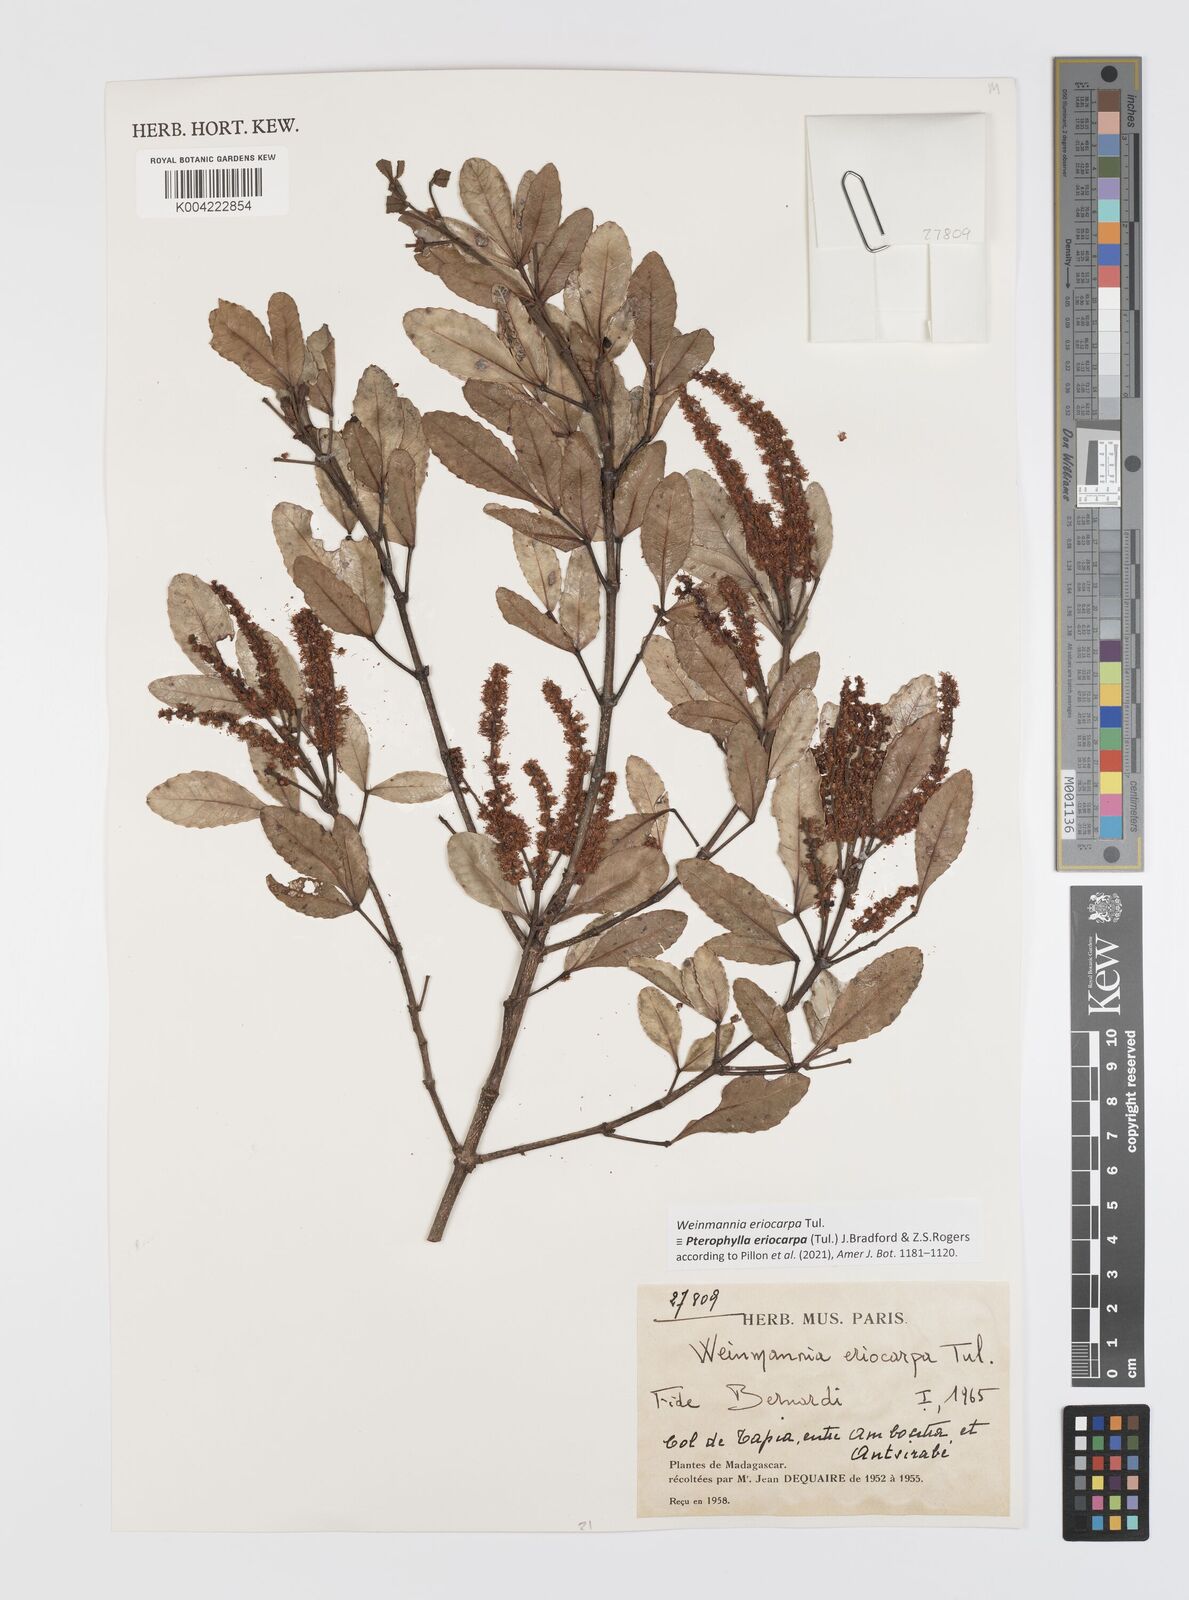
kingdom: Plantae
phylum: Tracheophyta
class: Magnoliopsida
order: Oxalidales
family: Cunoniaceae
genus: Pterophylla
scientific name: Pterophylla eriocarpa
